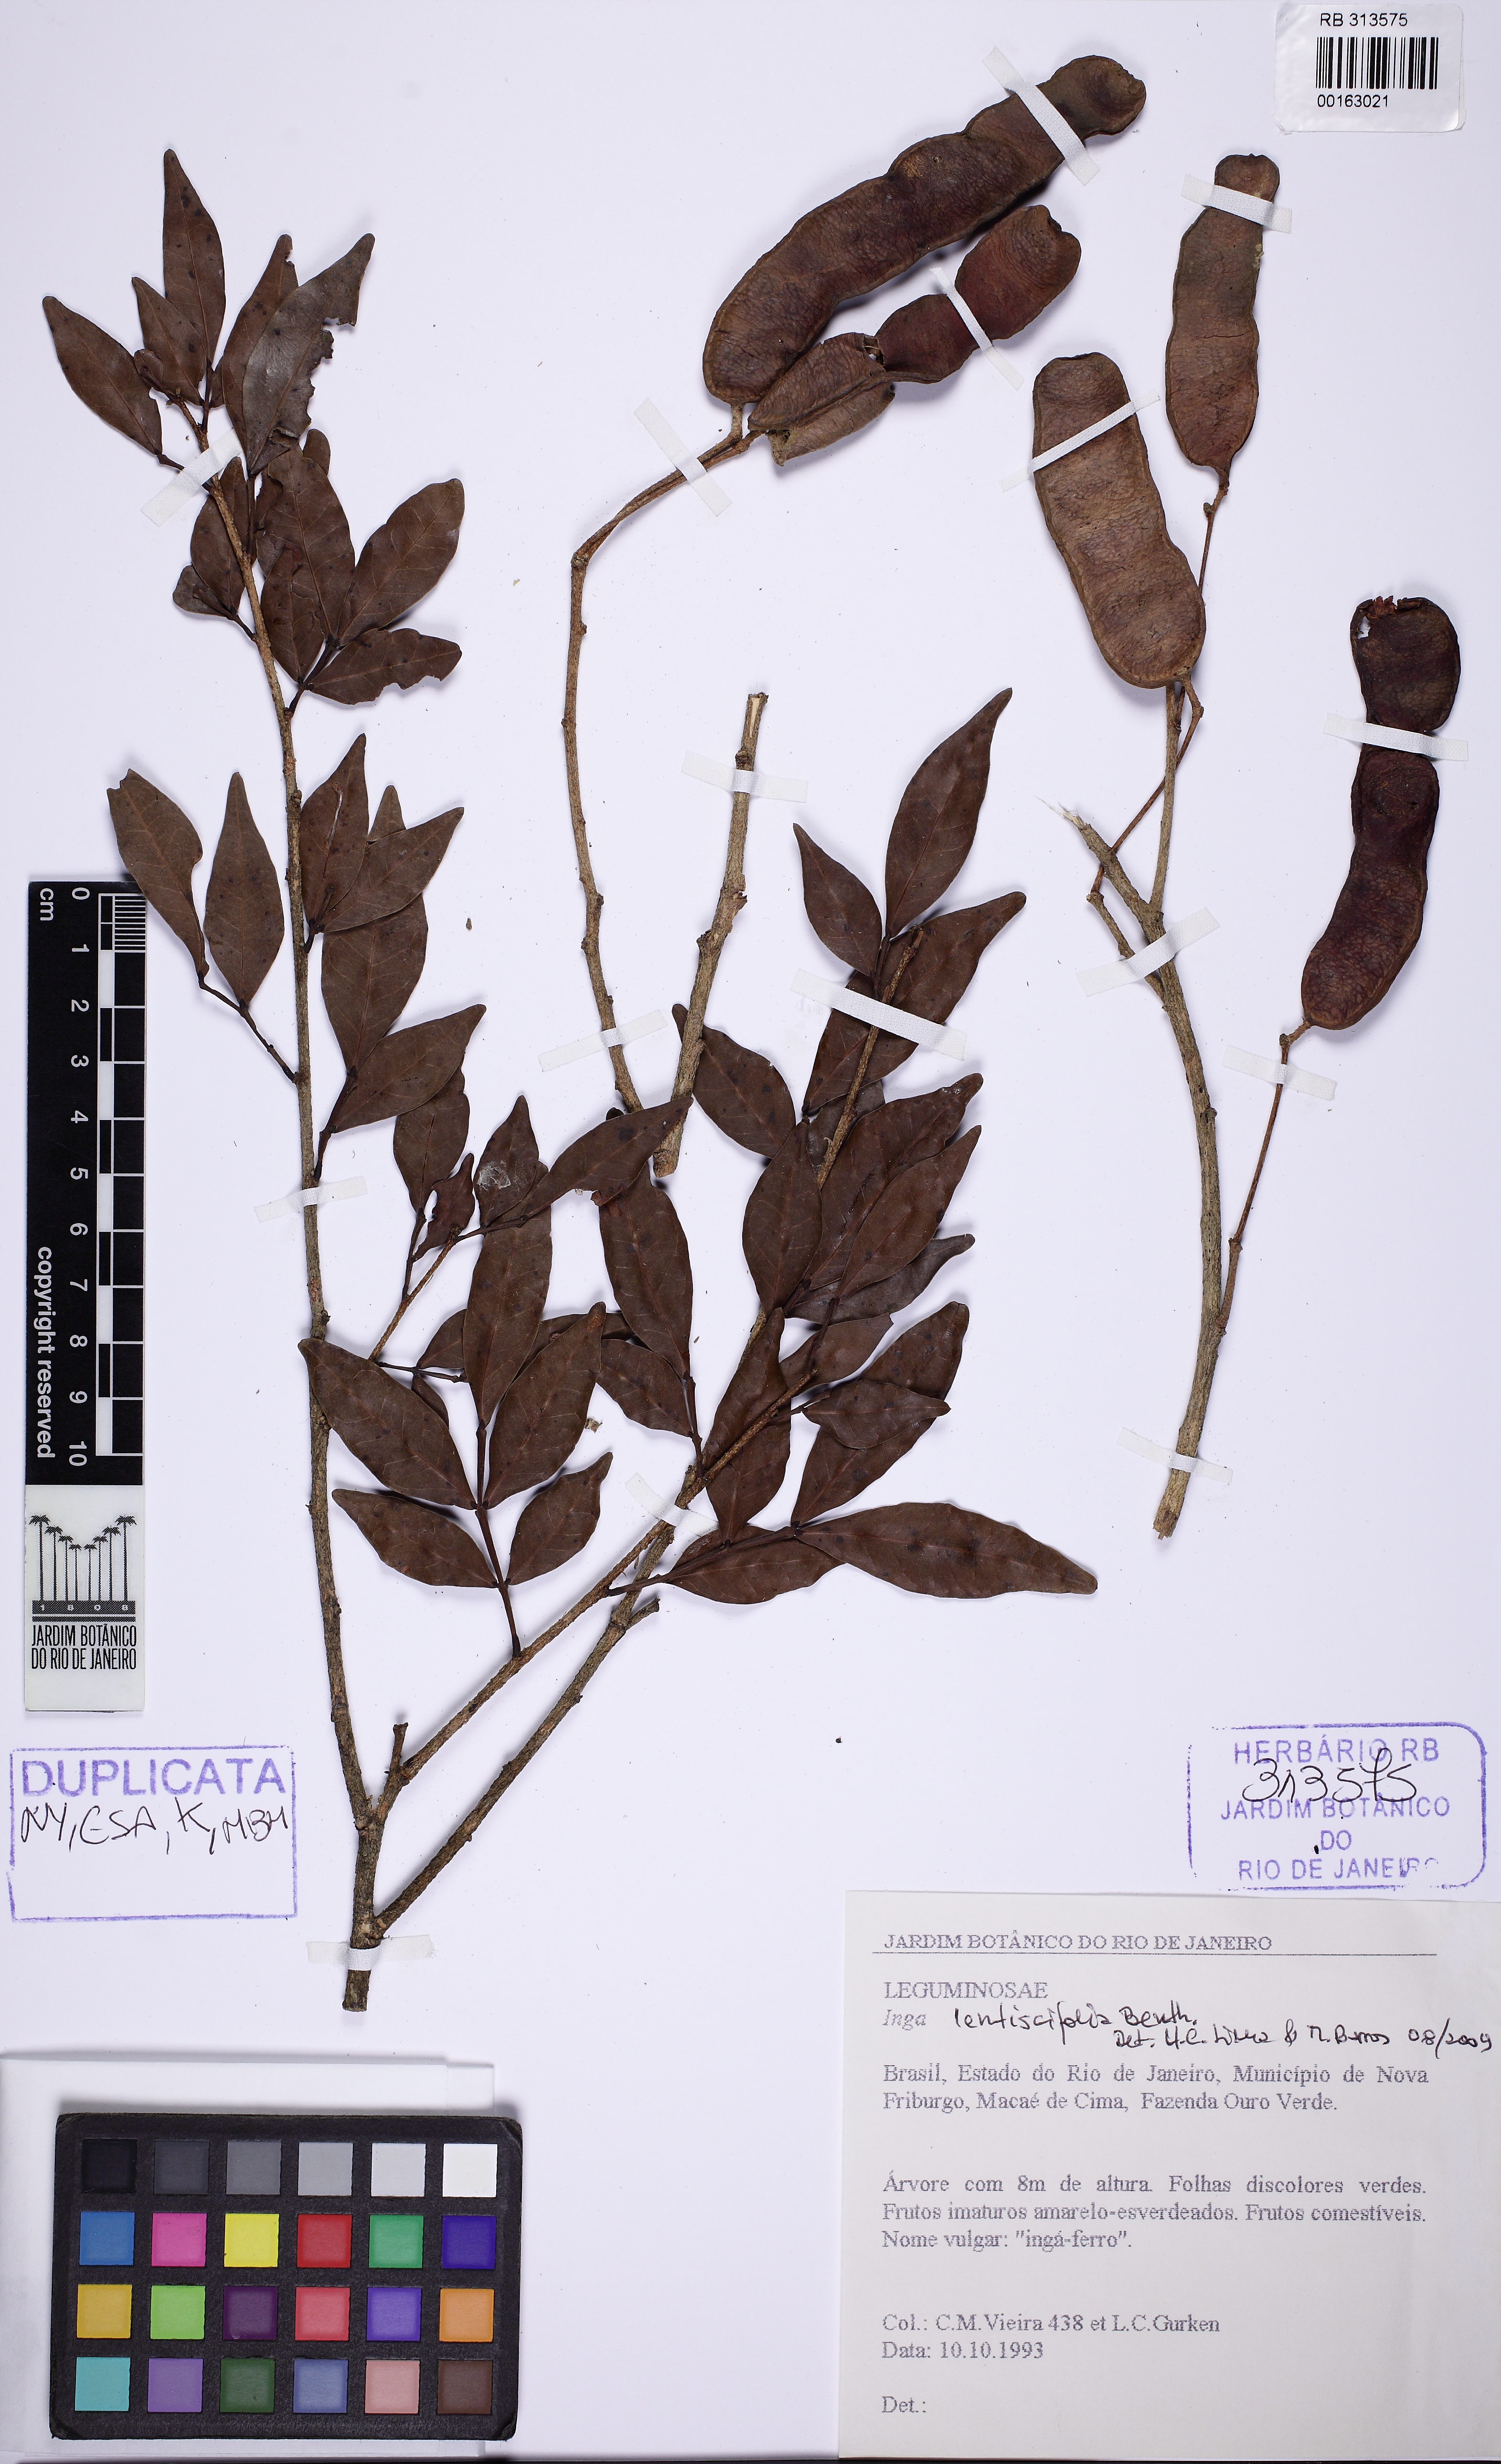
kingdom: Plantae
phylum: Tracheophyta
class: Magnoliopsida
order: Fabales
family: Fabaceae
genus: Inga
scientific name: Inga lentiscifolia
